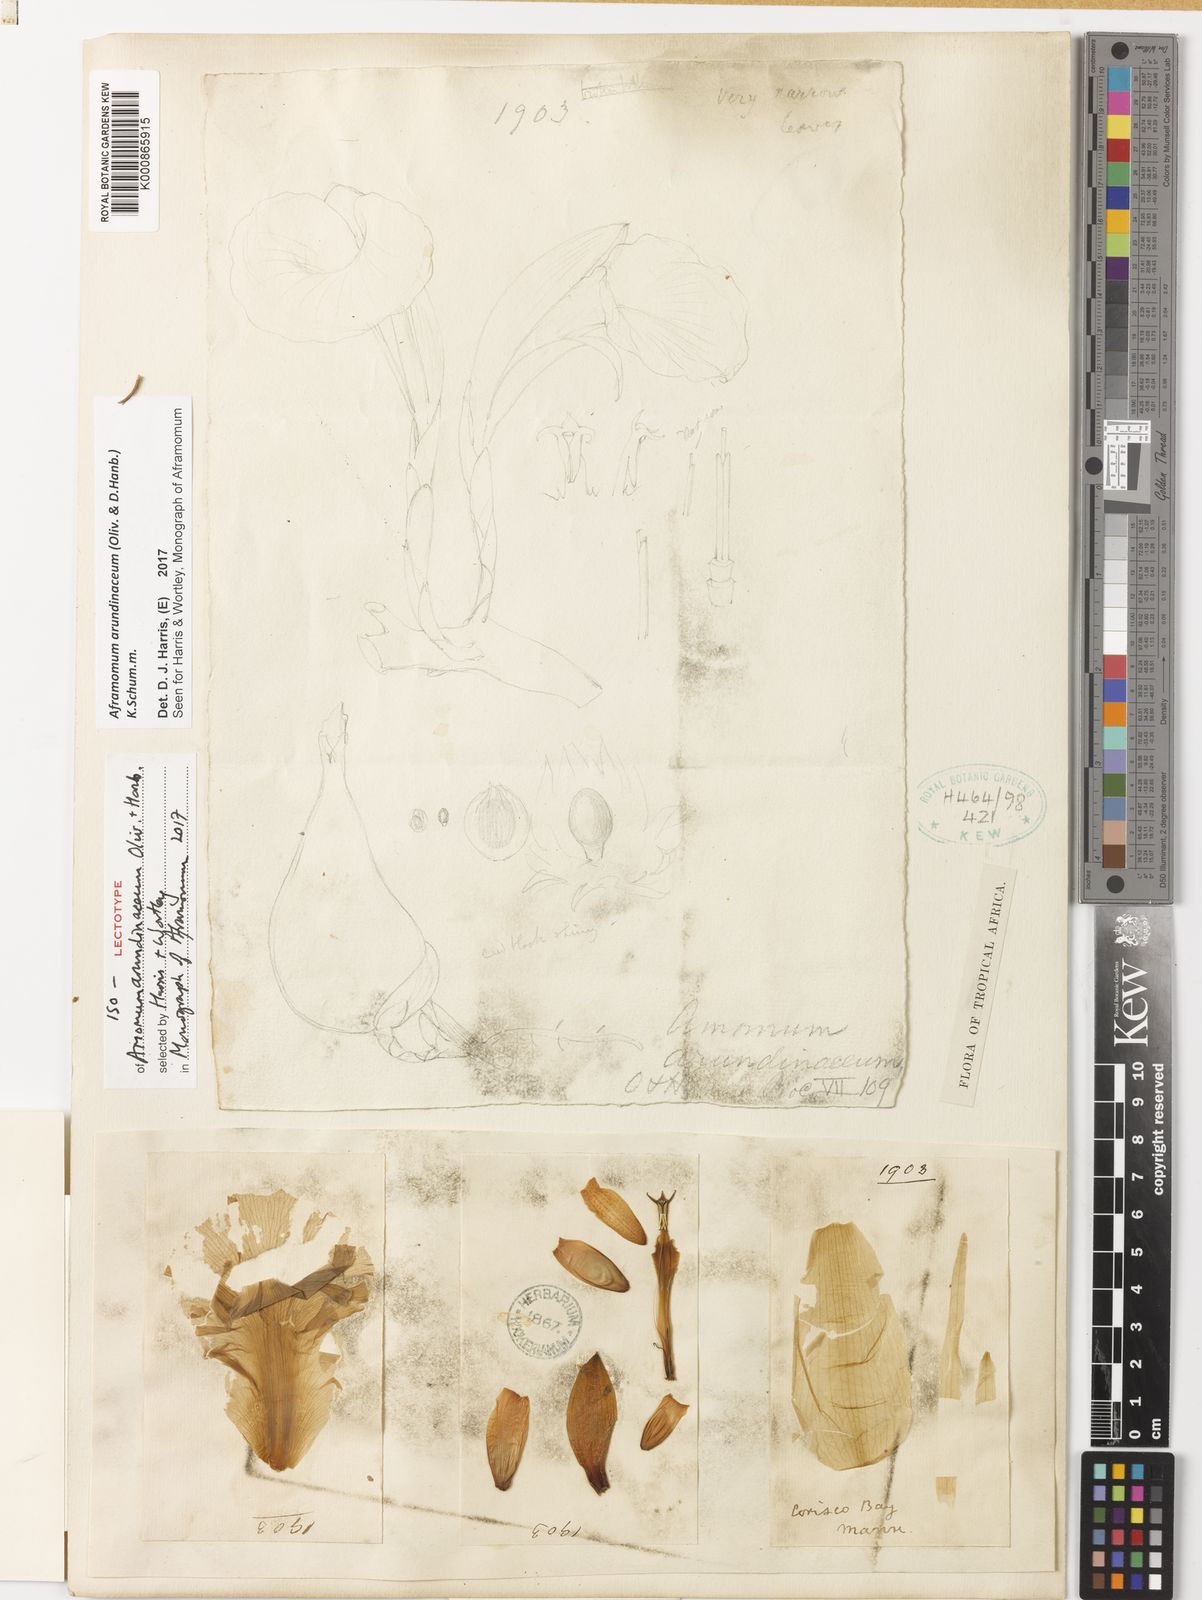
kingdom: Plantae
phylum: Tracheophyta
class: Liliopsida
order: Zingiberales
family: Zingiberaceae
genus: Aframomum
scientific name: Aframomum arundinaceum
